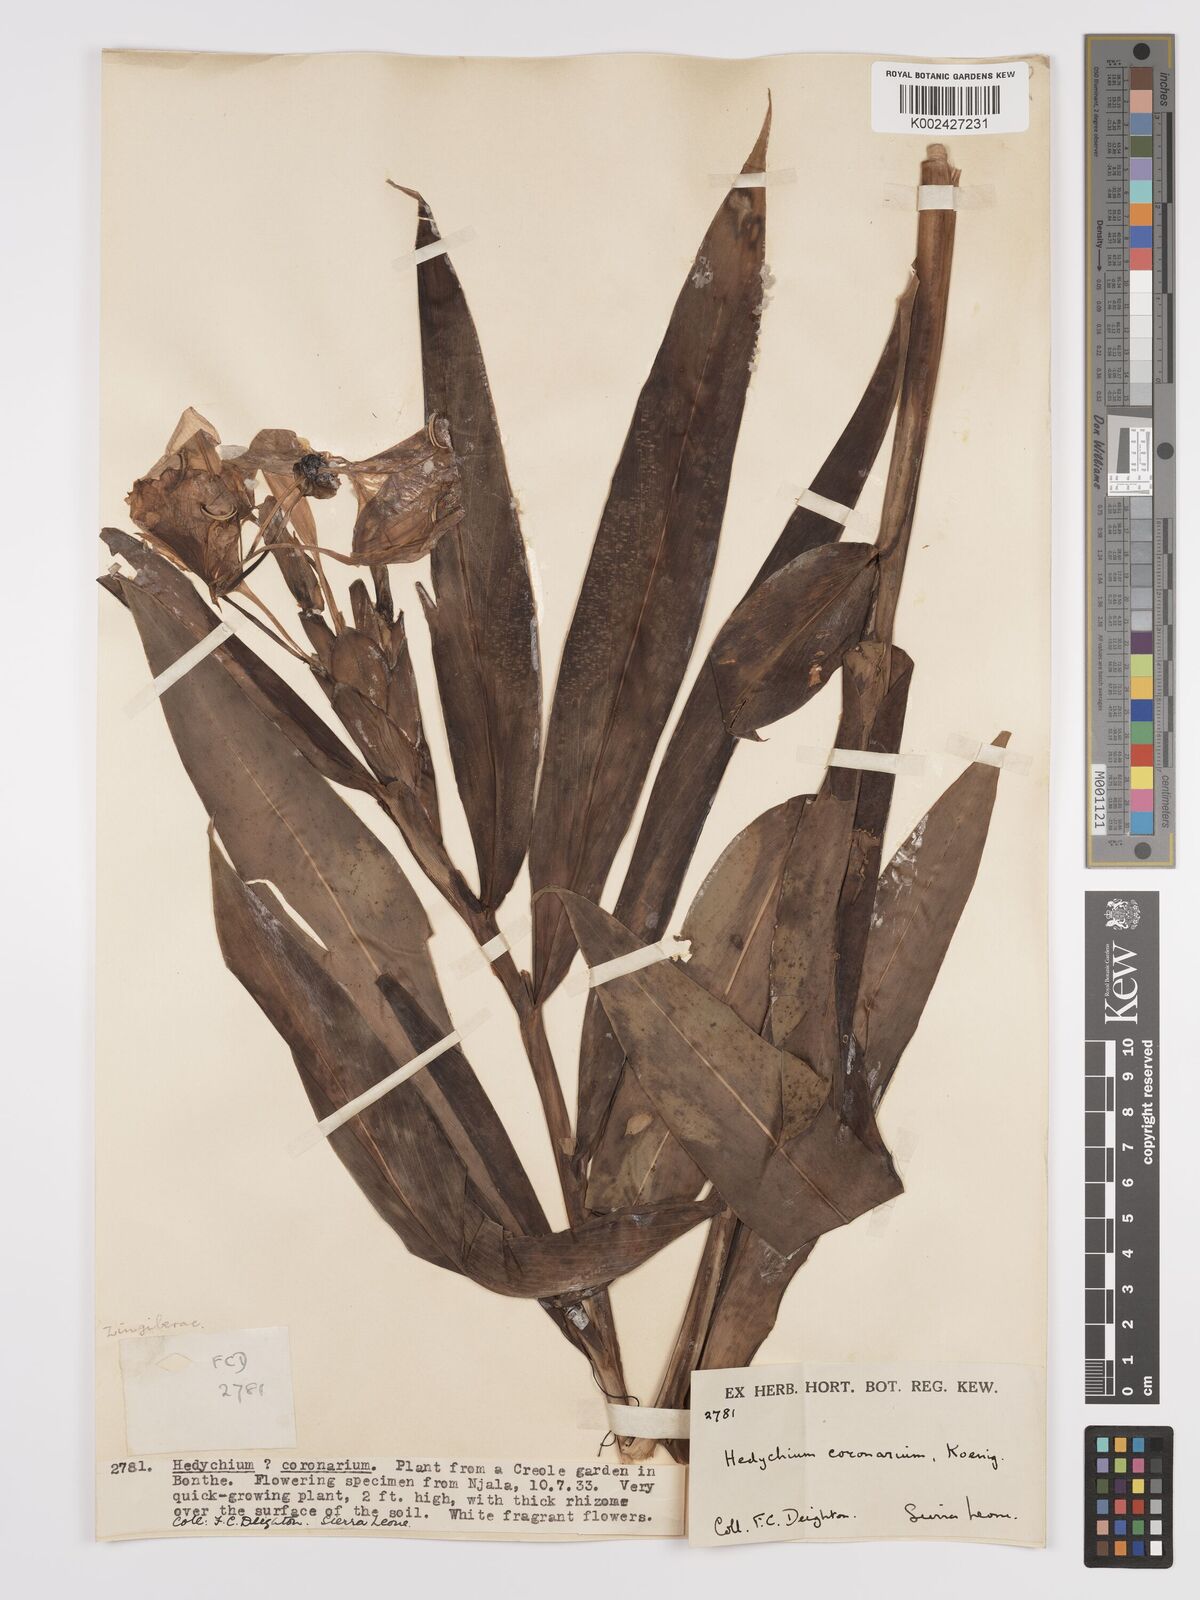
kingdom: Plantae
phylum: Tracheophyta
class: Liliopsida
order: Zingiberales
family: Zingiberaceae
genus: Hedychium
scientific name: Hedychium coronarium
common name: White garland-lily
